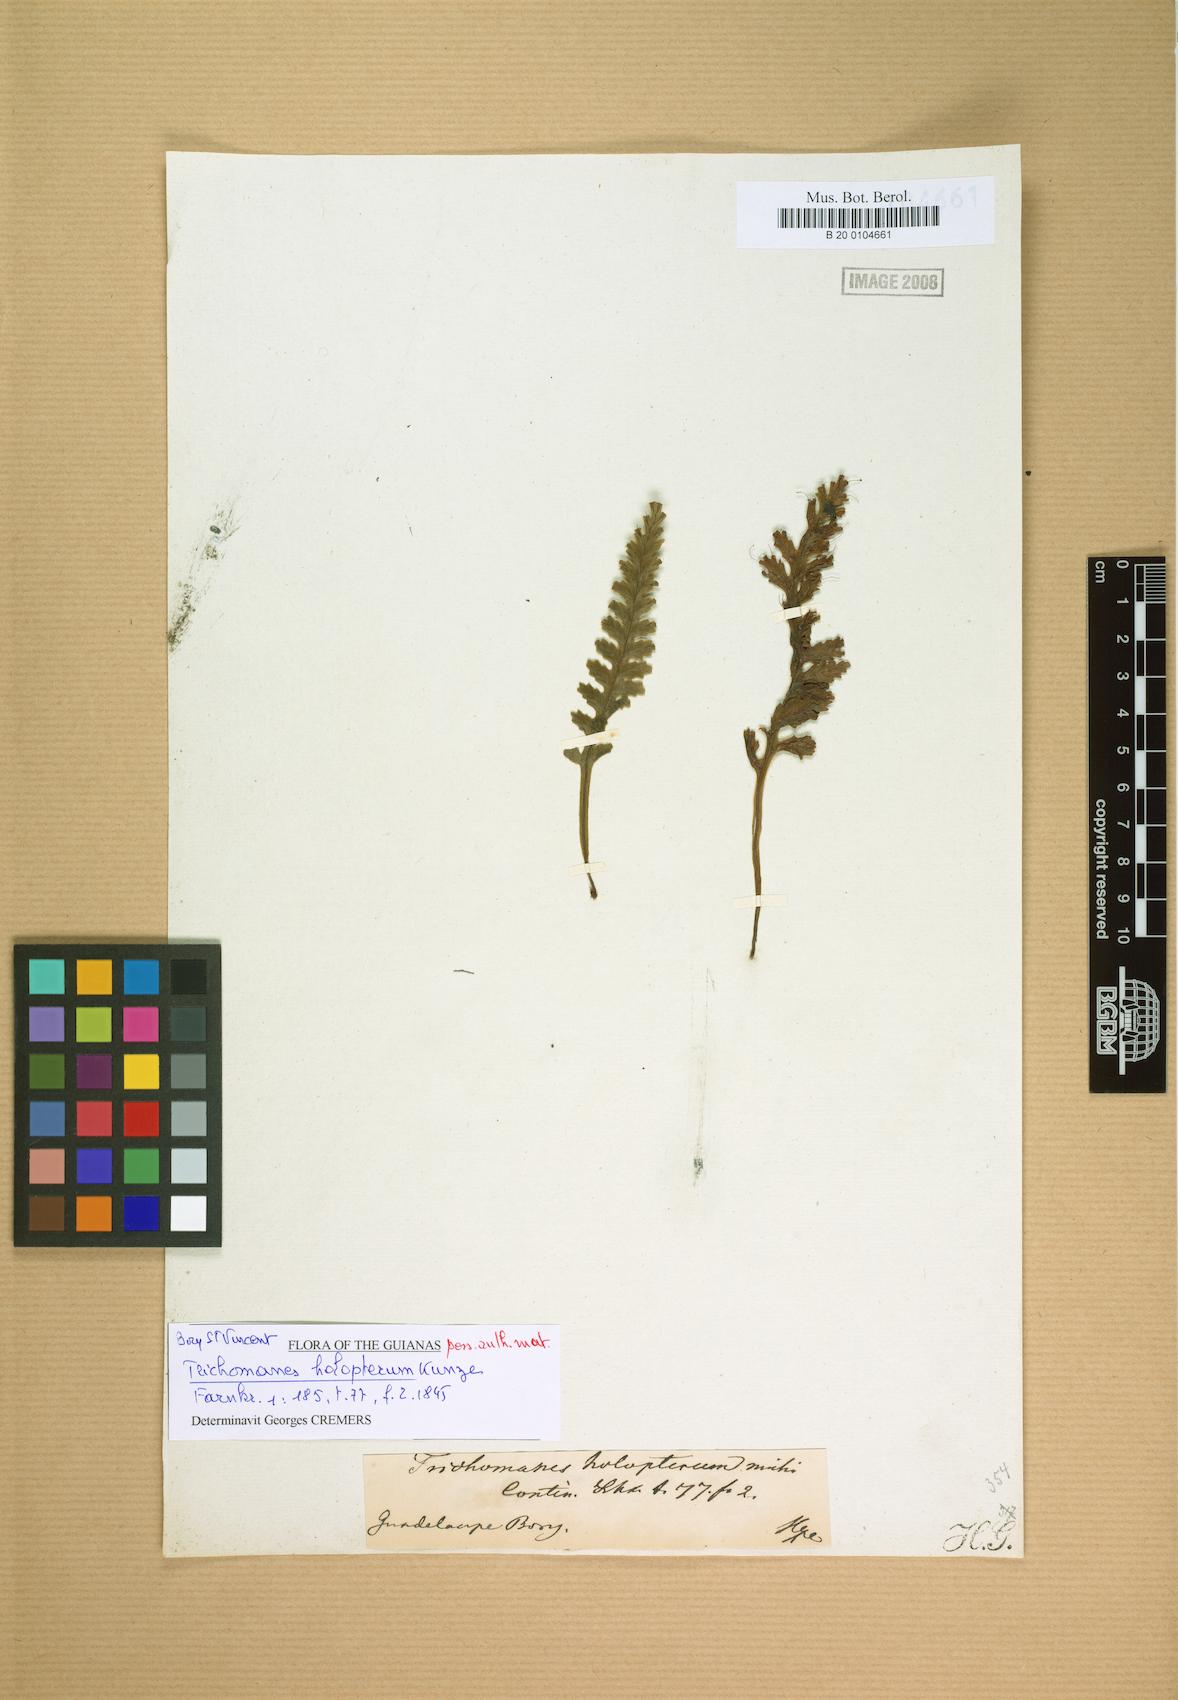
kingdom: Plantae
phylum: Tracheophyta
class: Polypodiopsida
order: Hymenophyllales
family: Hymenophyllaceae
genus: Trichomanes
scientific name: Trichomanes holopterum
